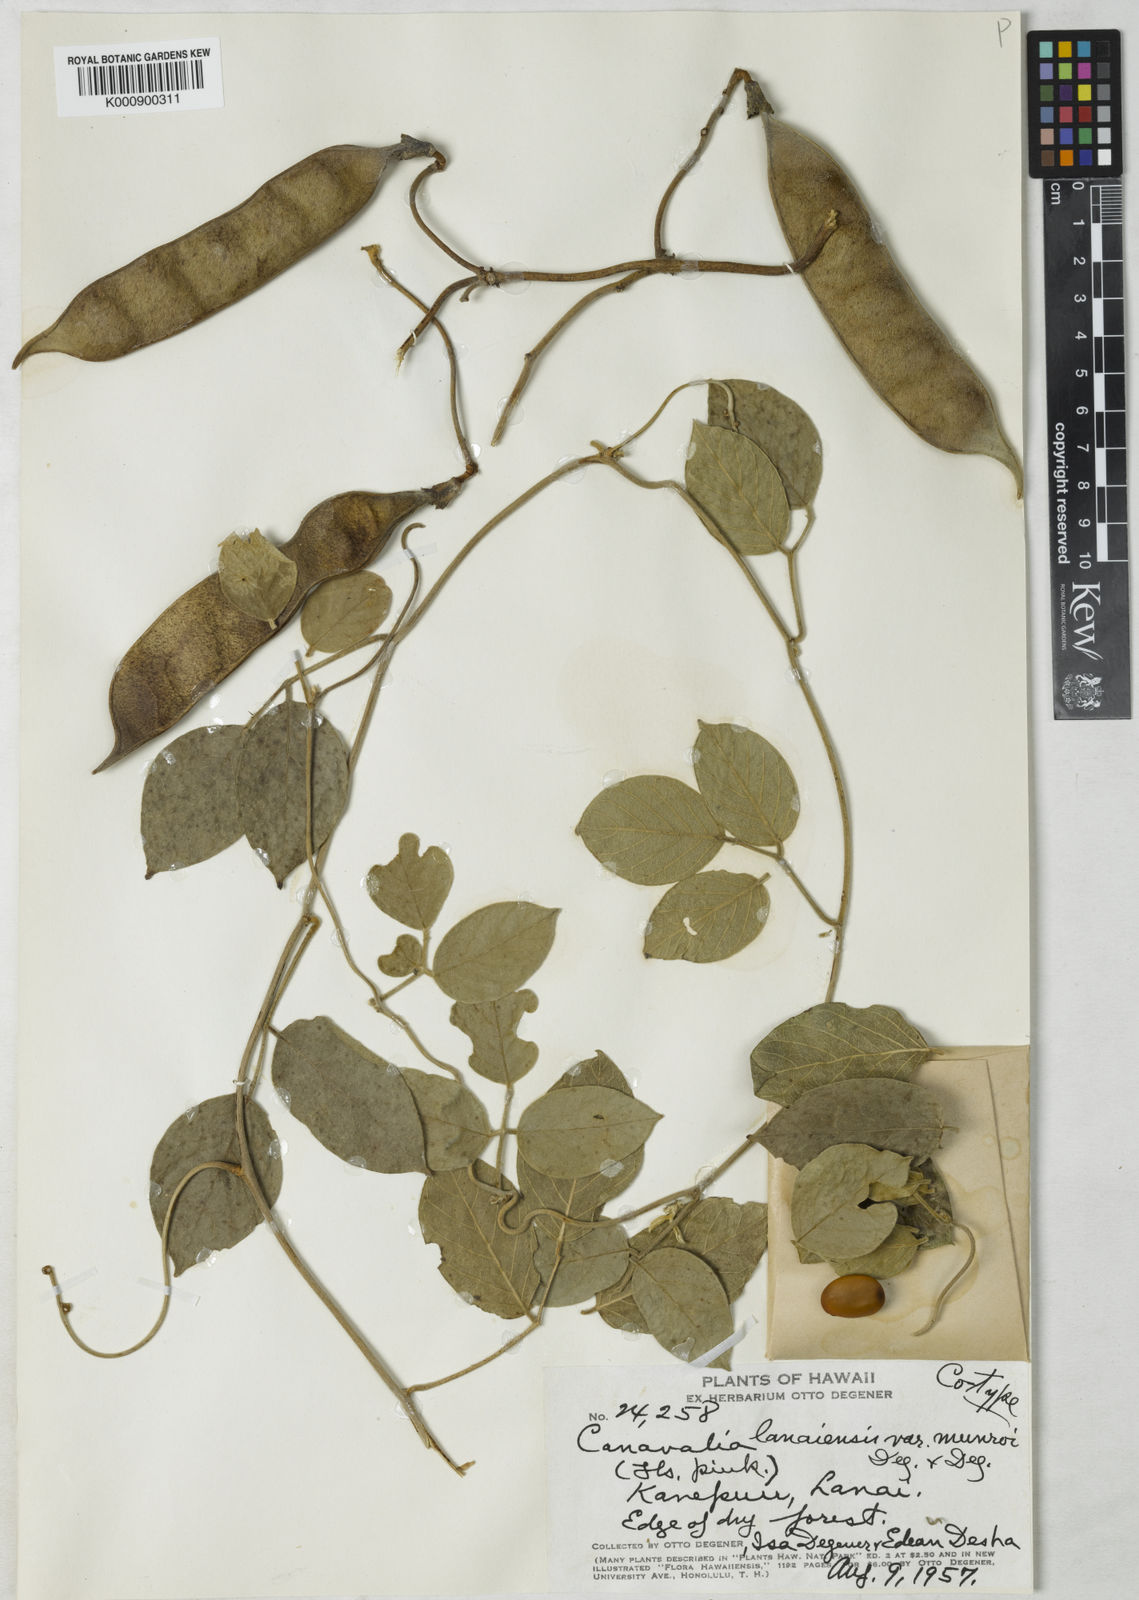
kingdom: Plantae
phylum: Tracheophyta
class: Magnoliopsida
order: Fabales
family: Fabaceae
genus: Canavalia
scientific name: Canavalia pubescens
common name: Jack bean
